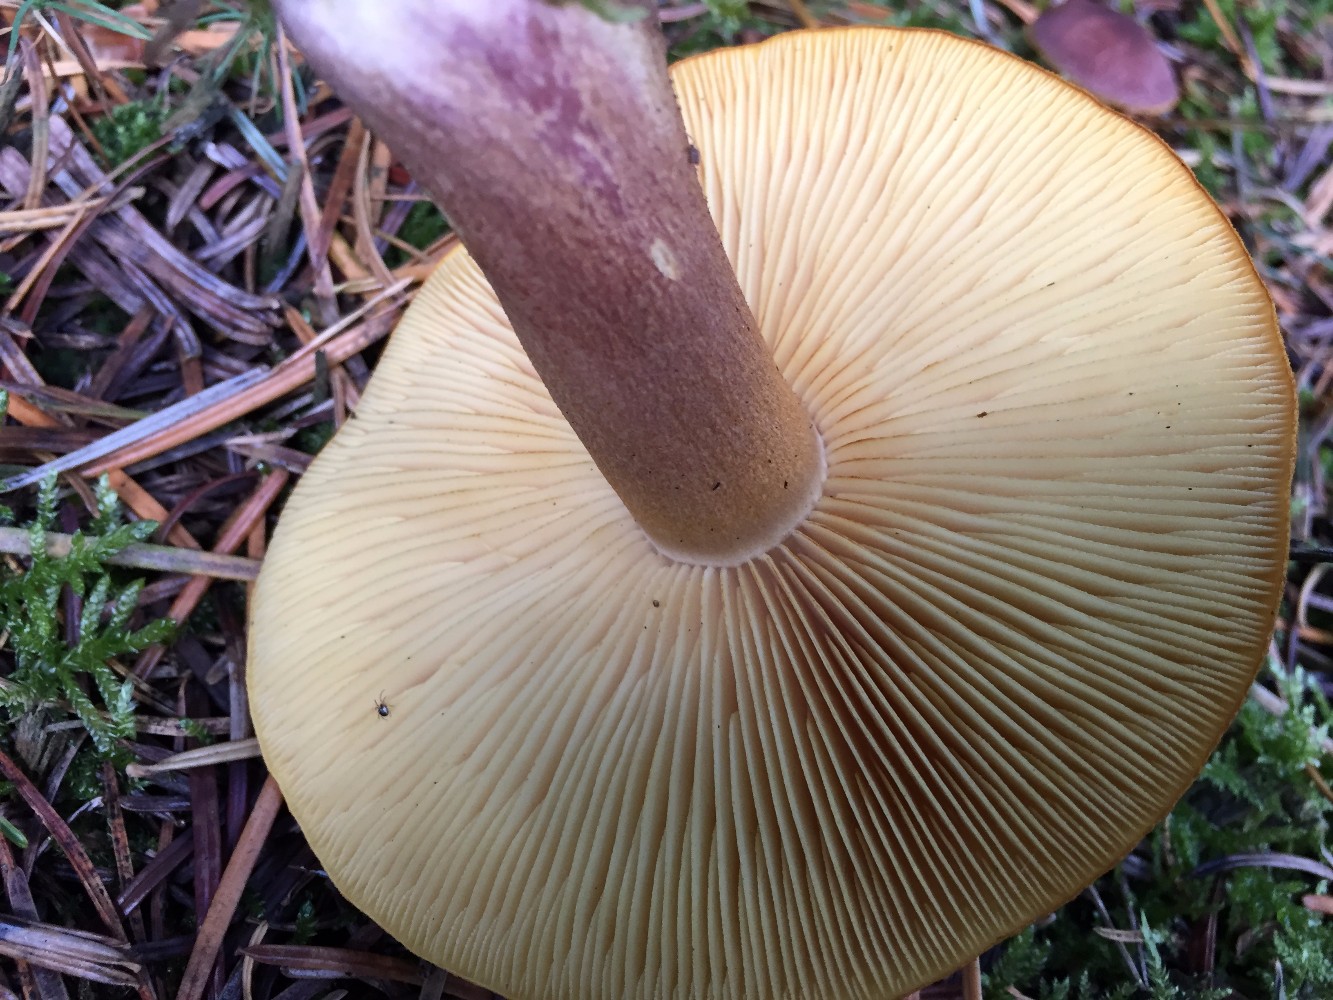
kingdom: Fungi
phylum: Basidiomycota
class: Agaricomycetes
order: Agaricales
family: Tricholomataceae
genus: Tricholomopsis
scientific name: Tricholomopsis rutilans
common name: purpur-væbnerhat
